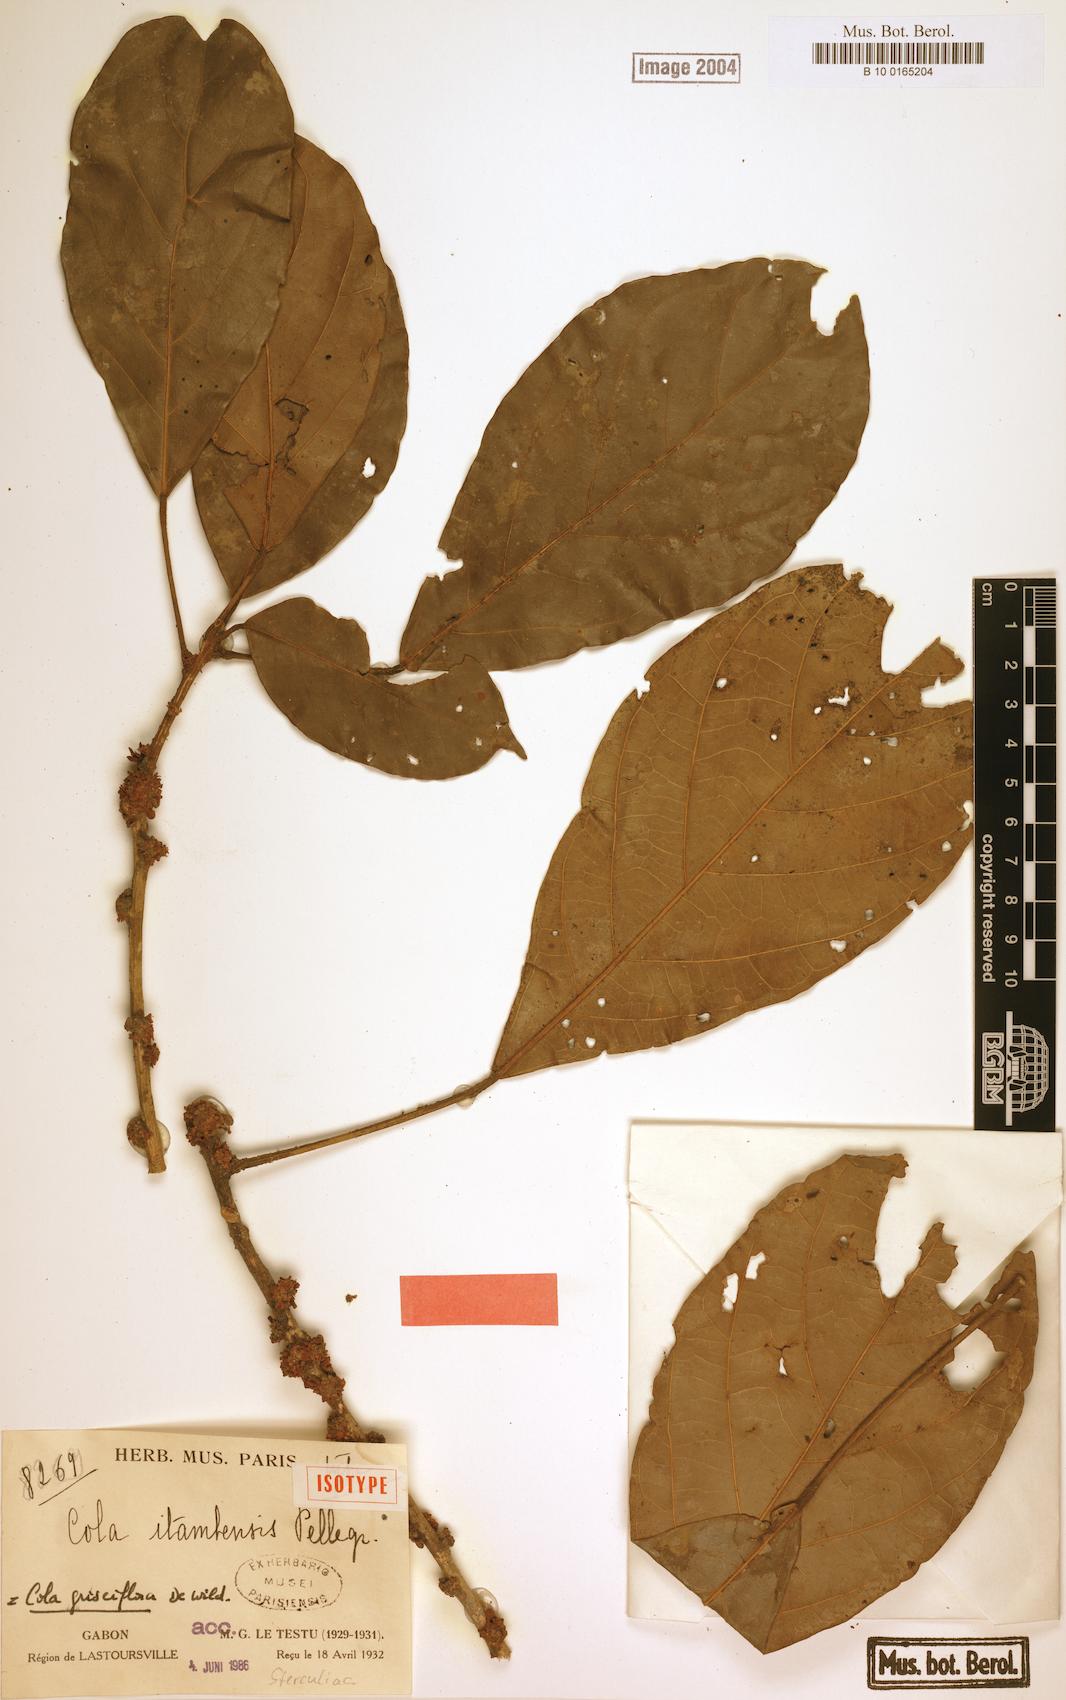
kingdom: Plantae
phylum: Tracheophyta
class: Magnoliopsida
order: Malvales
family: Malvaceae
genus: Cola
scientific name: Cola griseiflora
